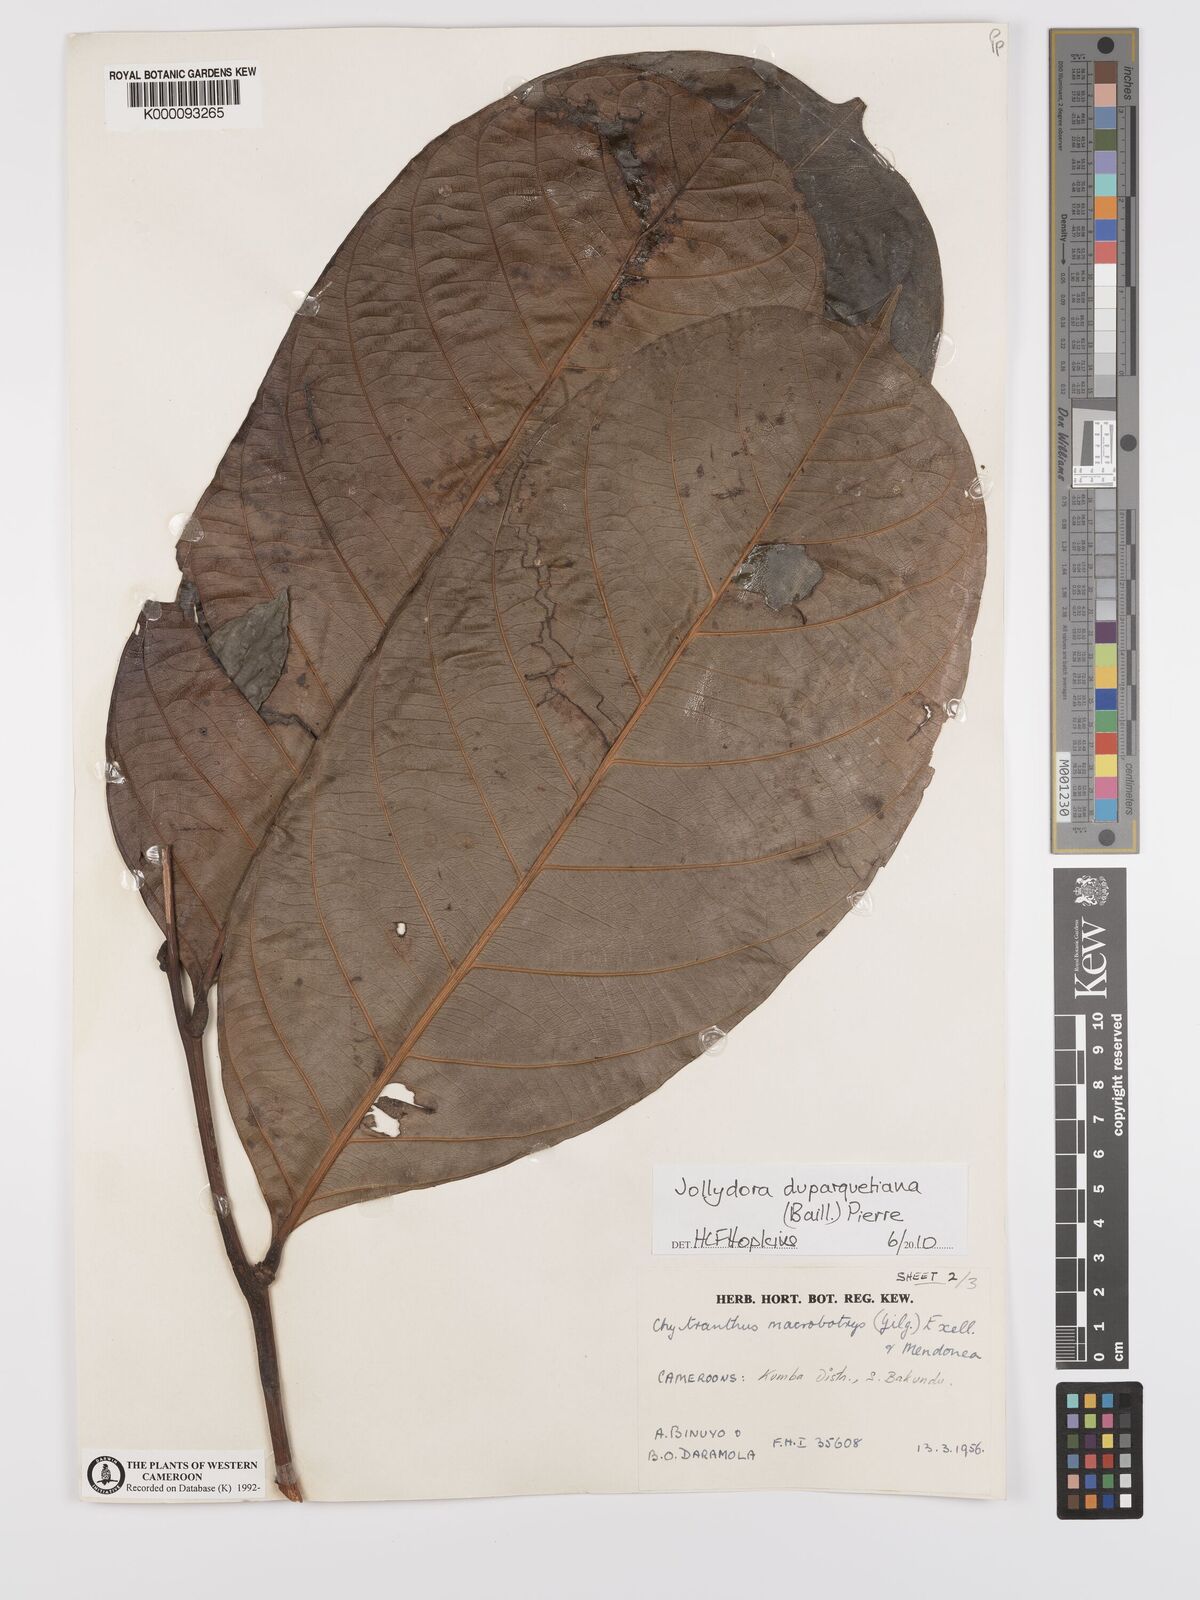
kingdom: Plantae
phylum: Tracheophyta
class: Magnoliopsida
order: Oxalidales
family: Connaraceae
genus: Jollydora
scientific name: Jollydora duparquetiana
